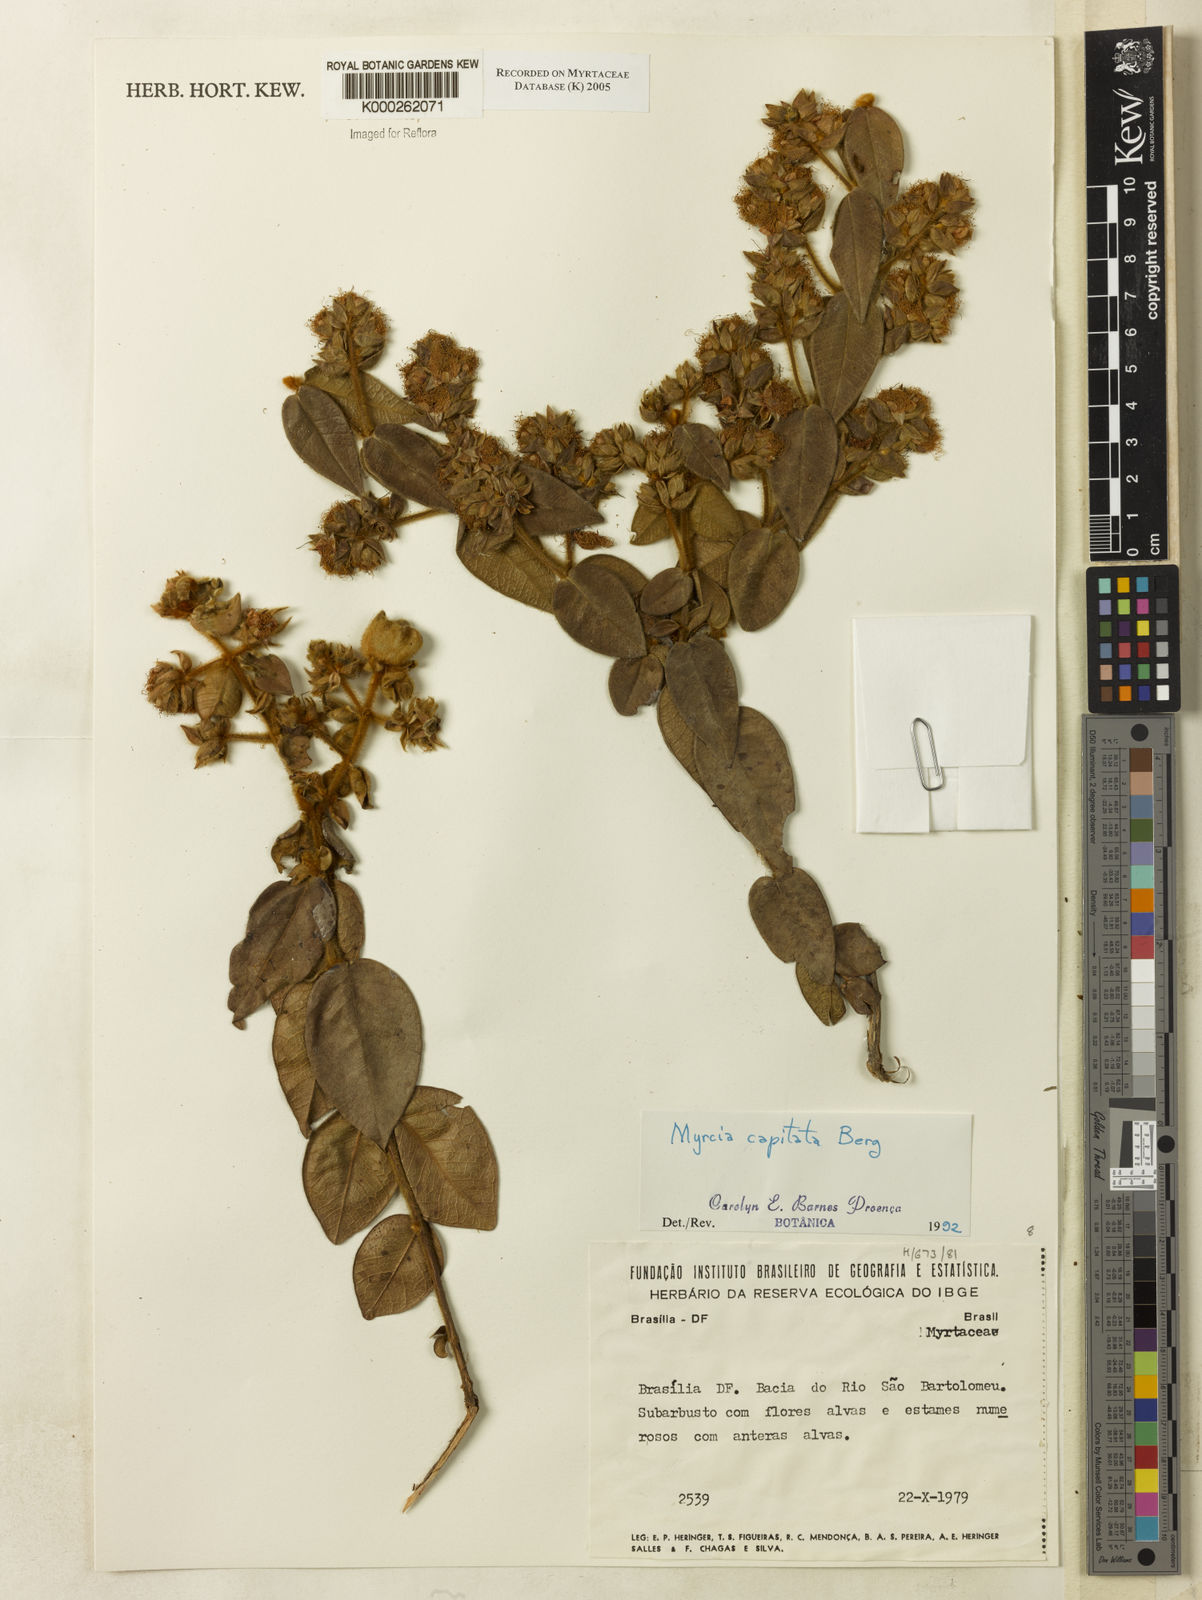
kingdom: Plantae
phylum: Tracheophyta
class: Magnoliopsida
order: Myrtales
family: Myrtaceae
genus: Myrcia
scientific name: Myrcia capitata
